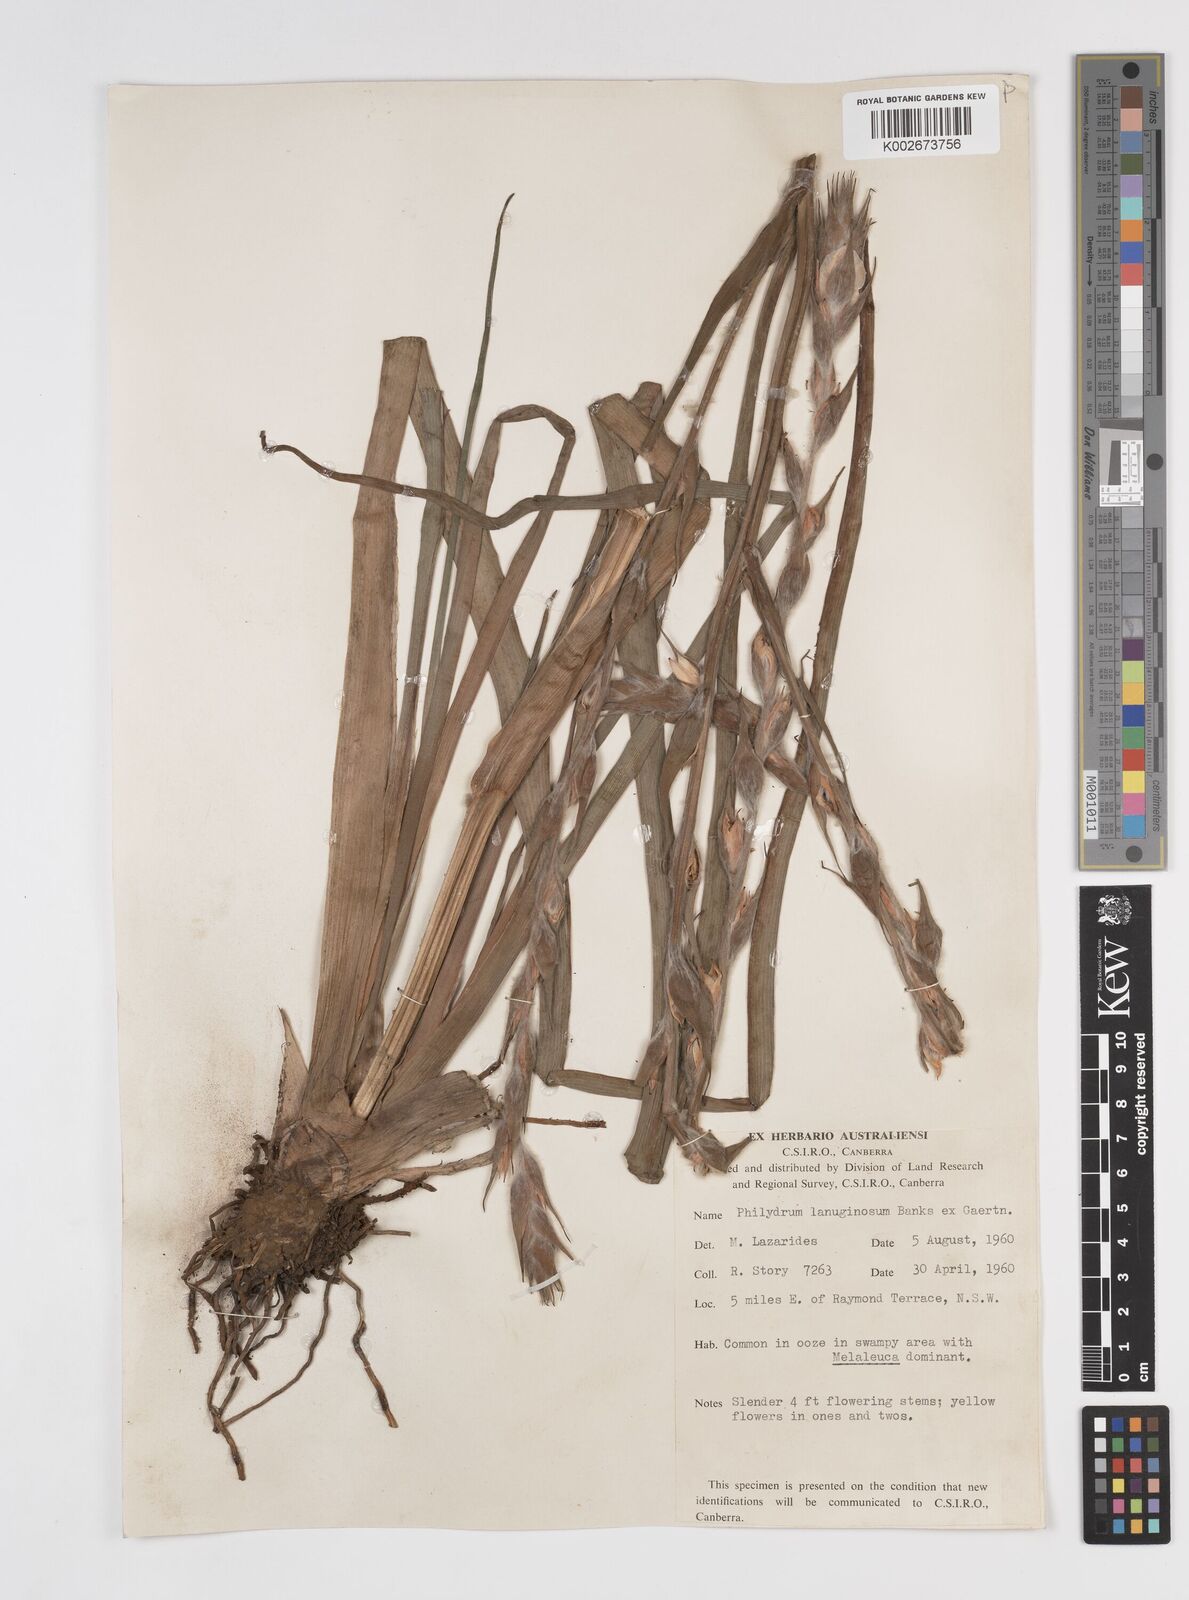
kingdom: Plantae
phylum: Tracheophyta
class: Liliopsida
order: Commelinales
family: Philydraceae
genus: Philydrum
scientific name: Philydrum lanuginosum
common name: Woolly frog's mouth
